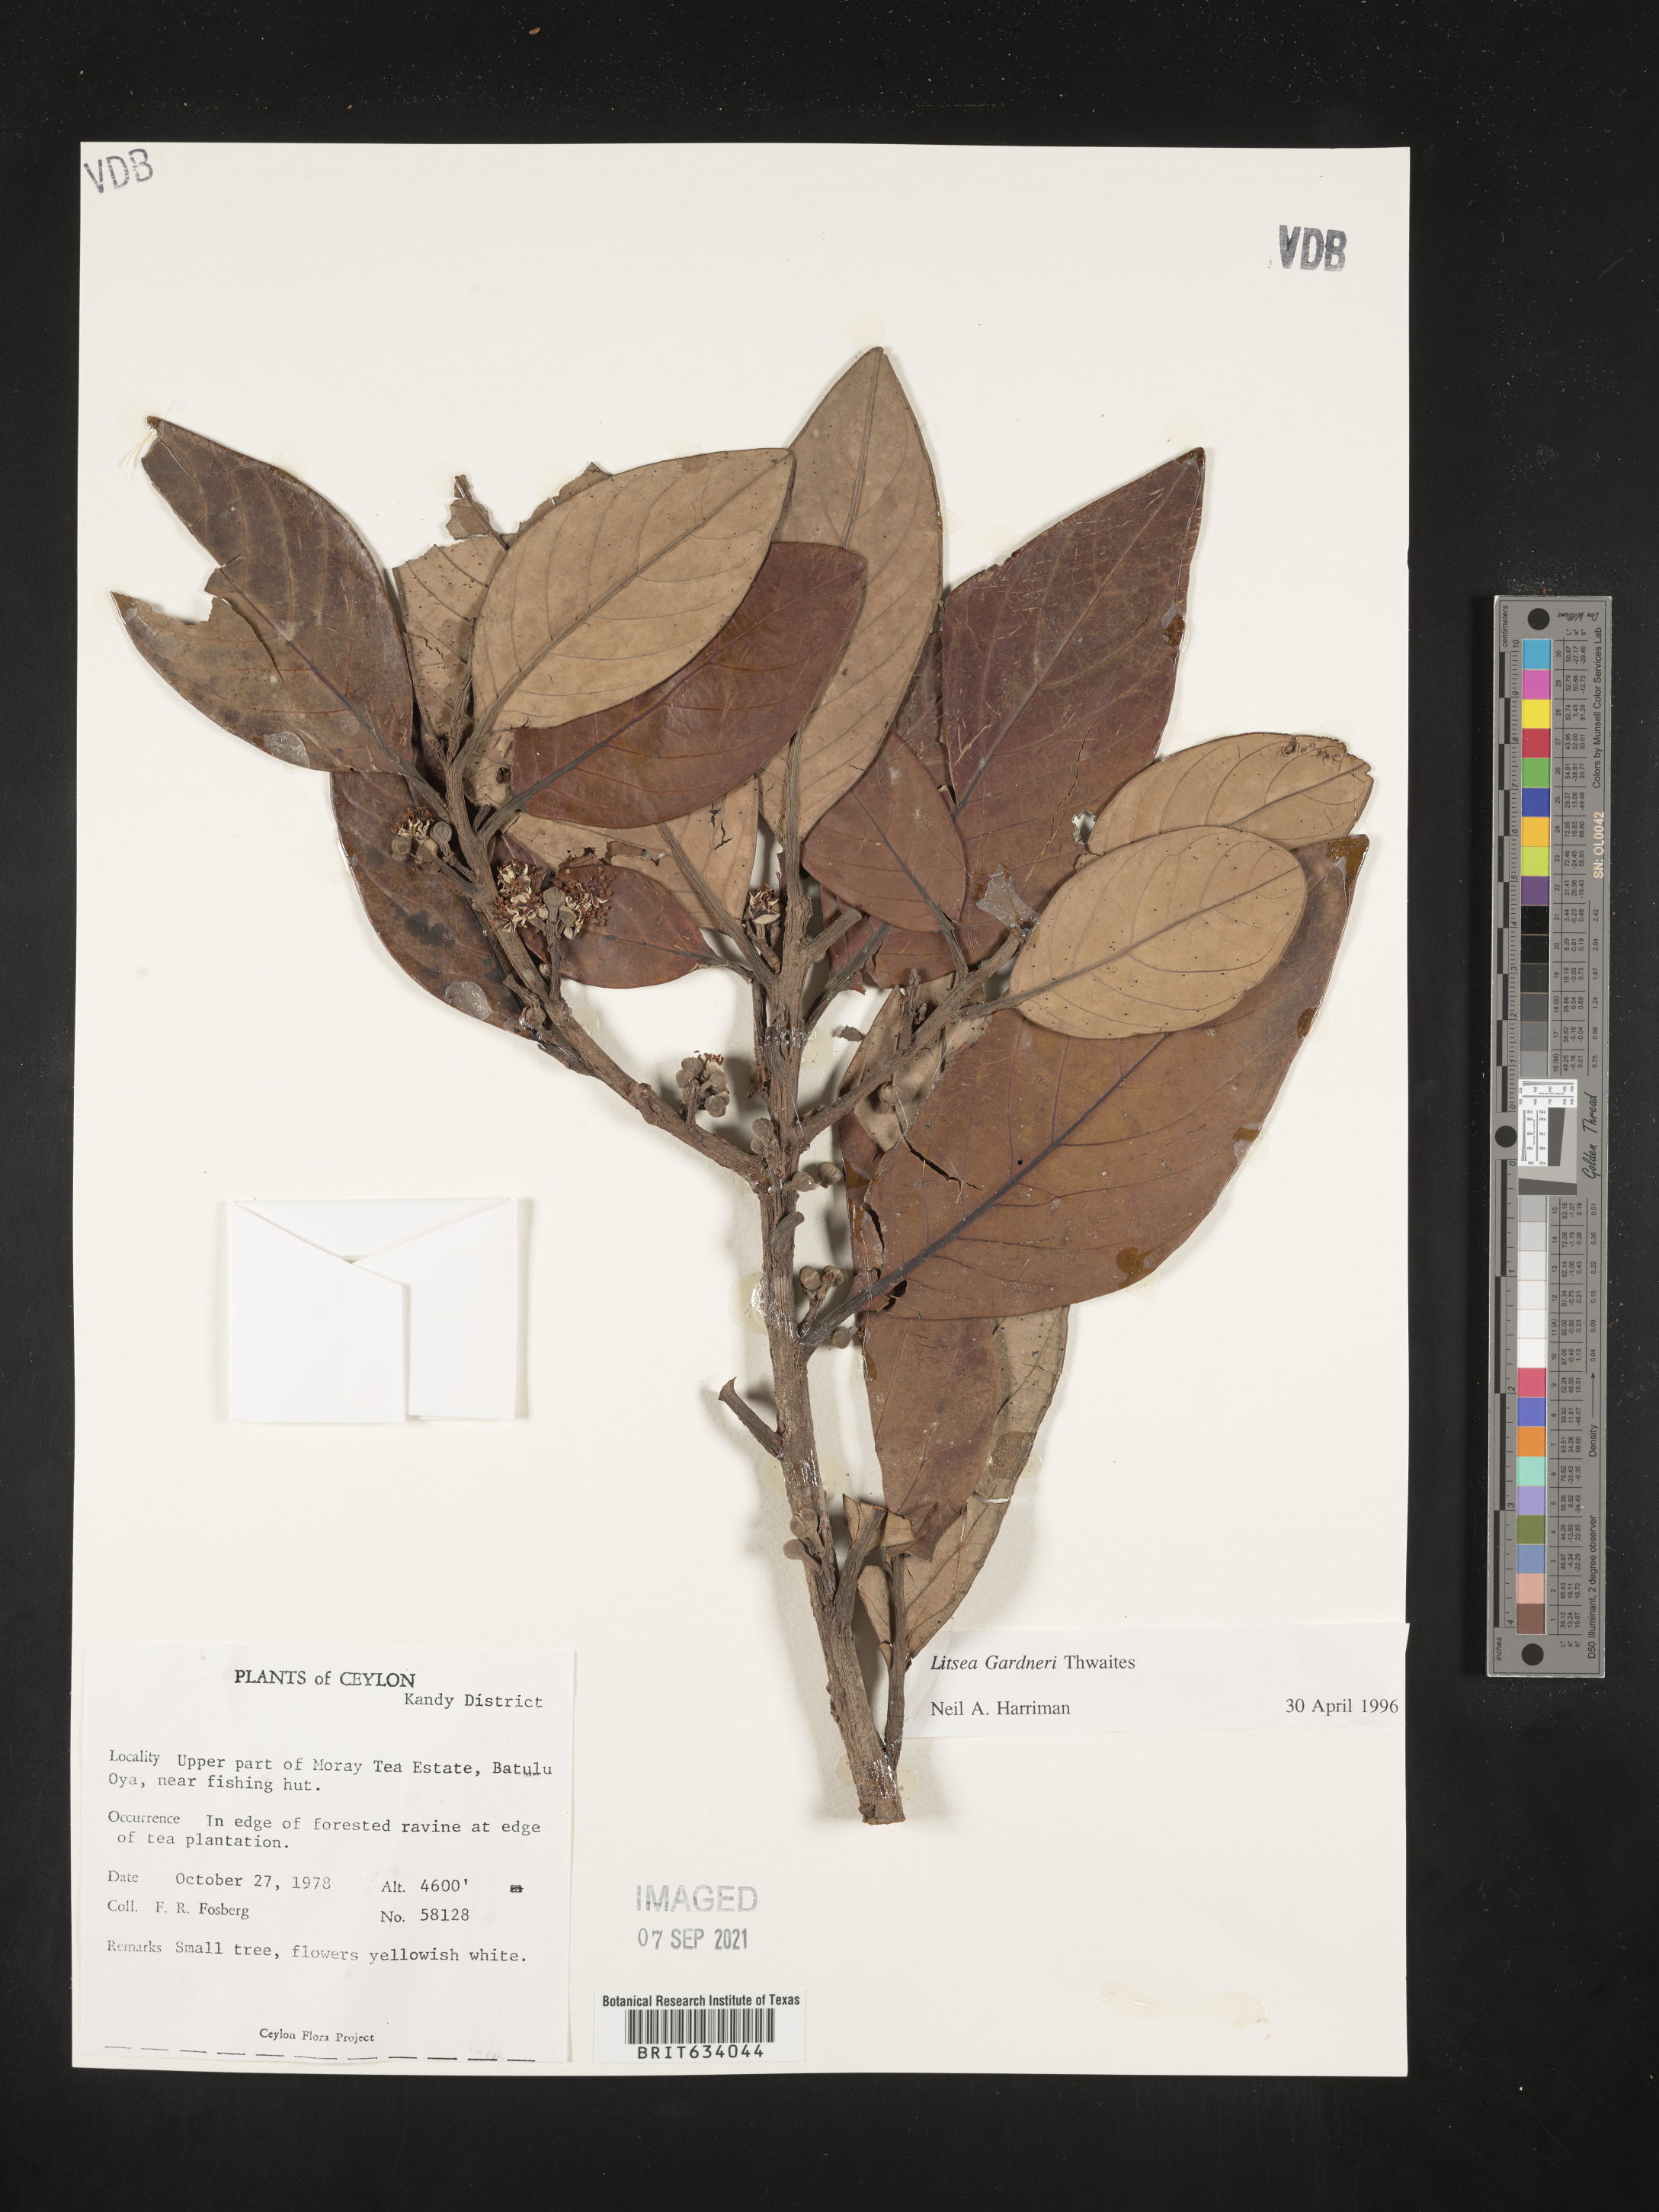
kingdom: Plantae
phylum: Tracheophyta
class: Magnoliopsida
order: Laurales
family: Lauraceae
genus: Litsea
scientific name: Litsea
